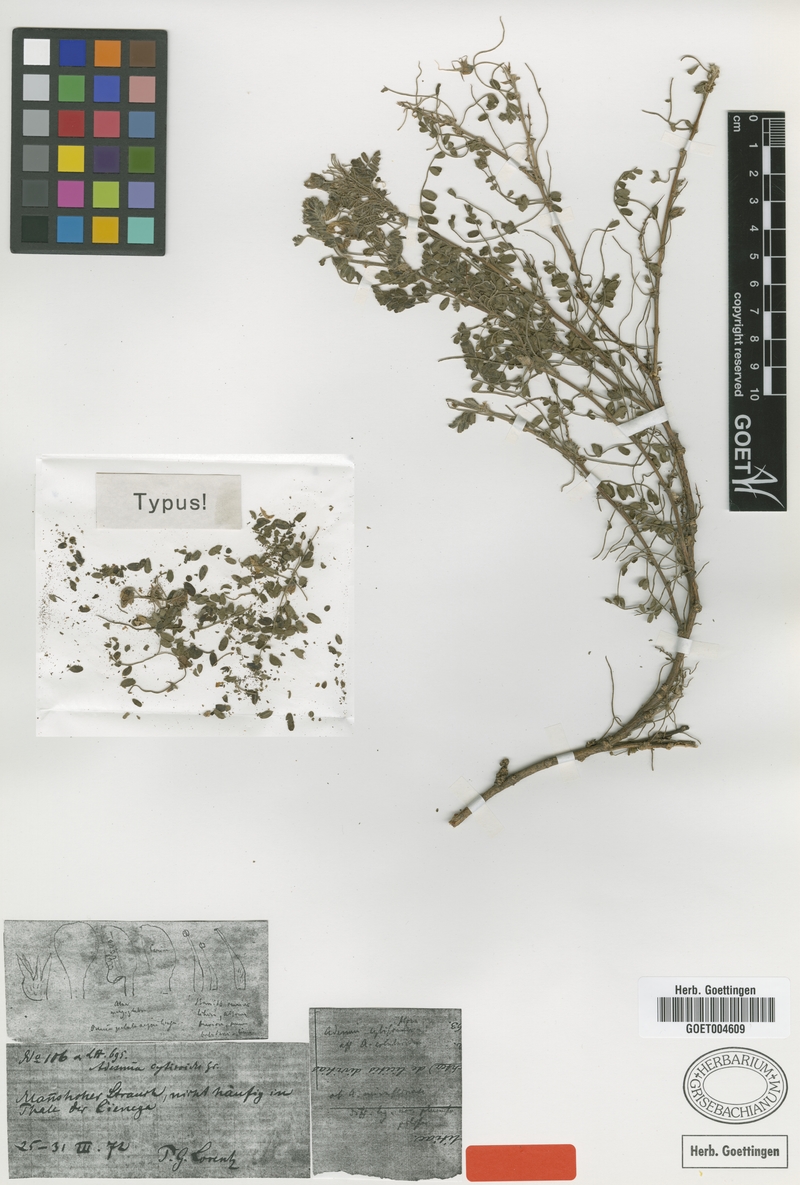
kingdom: Plantae
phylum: Tracheophyta
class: Magnoliopsida
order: Fabales
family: Fabaceae
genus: Adesmia
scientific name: Adesmia cytisoides
